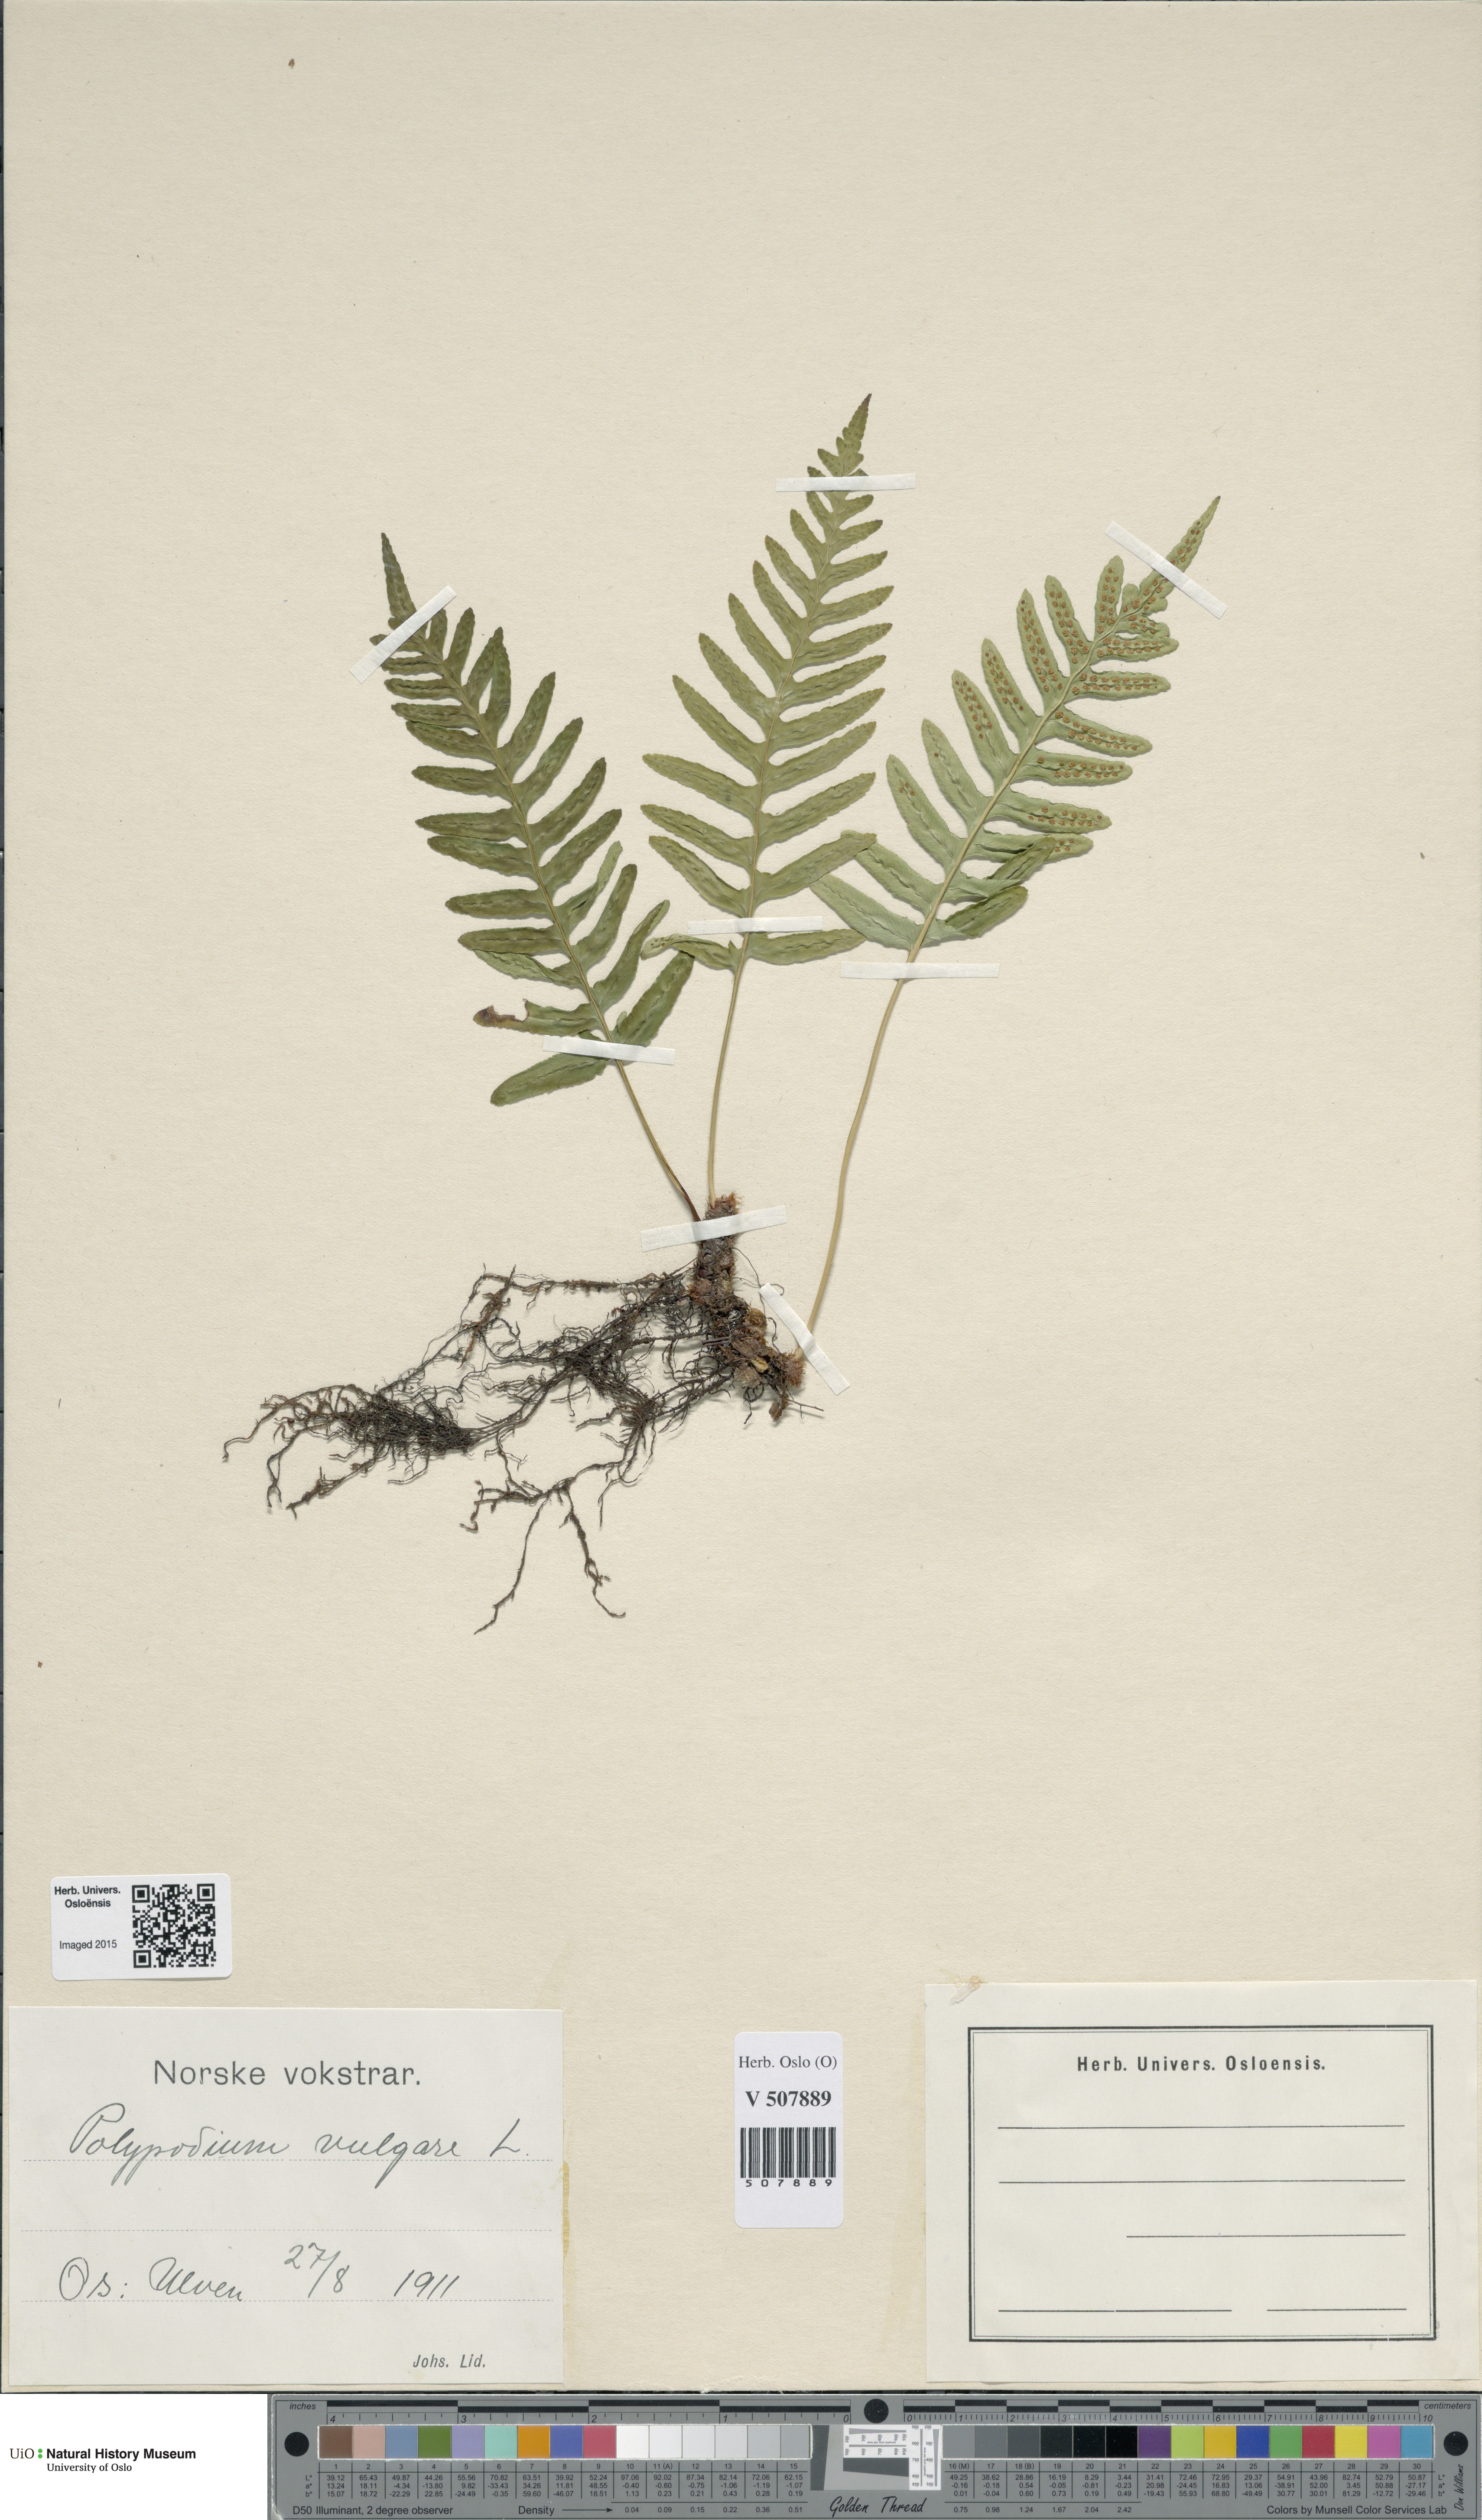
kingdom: Plantae
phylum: Tracheophyta
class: Polypodiopsida
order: Polypodiales
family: Polypodiaceae
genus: Polypodium
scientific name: Polypodium vulgare
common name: Common polypody
